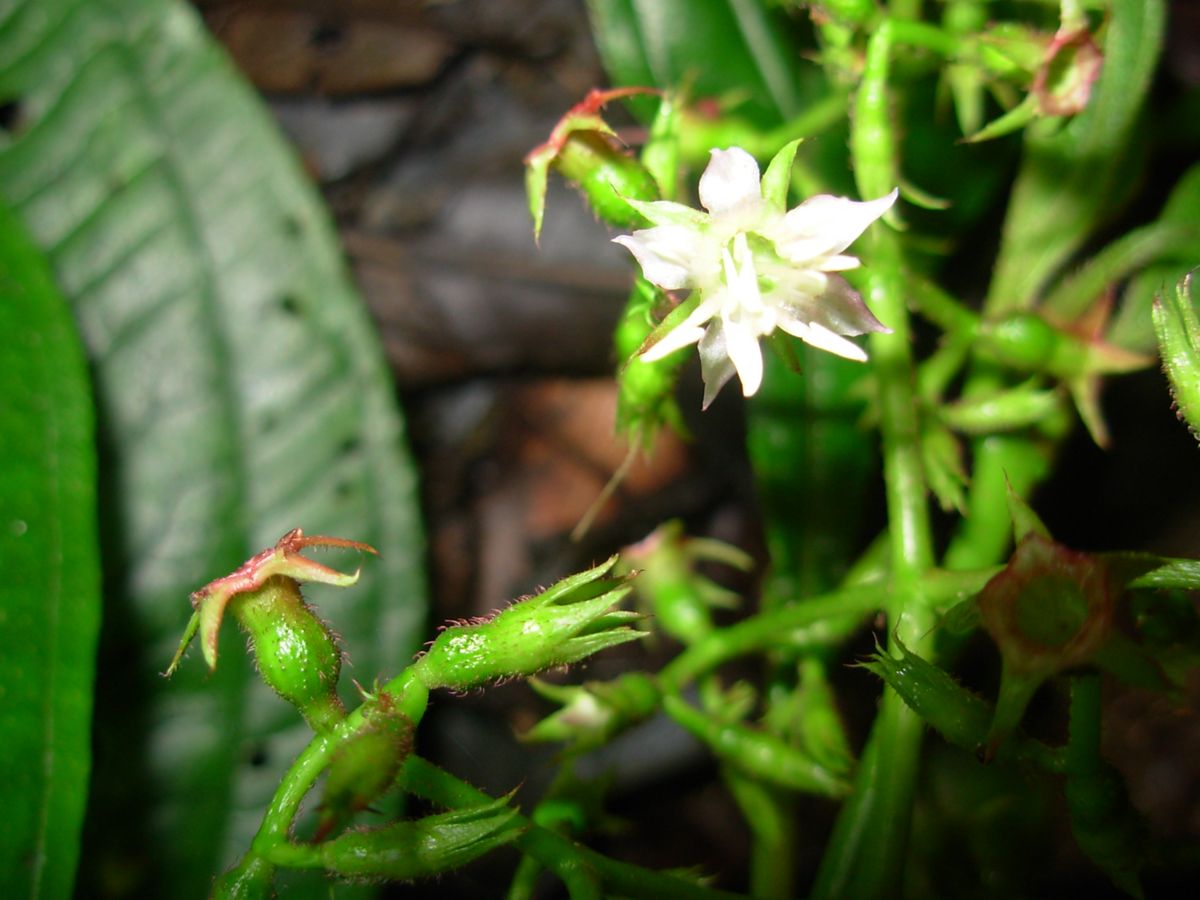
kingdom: Plantae
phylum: Tracheophyta
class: Magnoliopsida
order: Myrtales
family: Melastomataceae
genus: Miconia
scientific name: Miconia oocarpa
